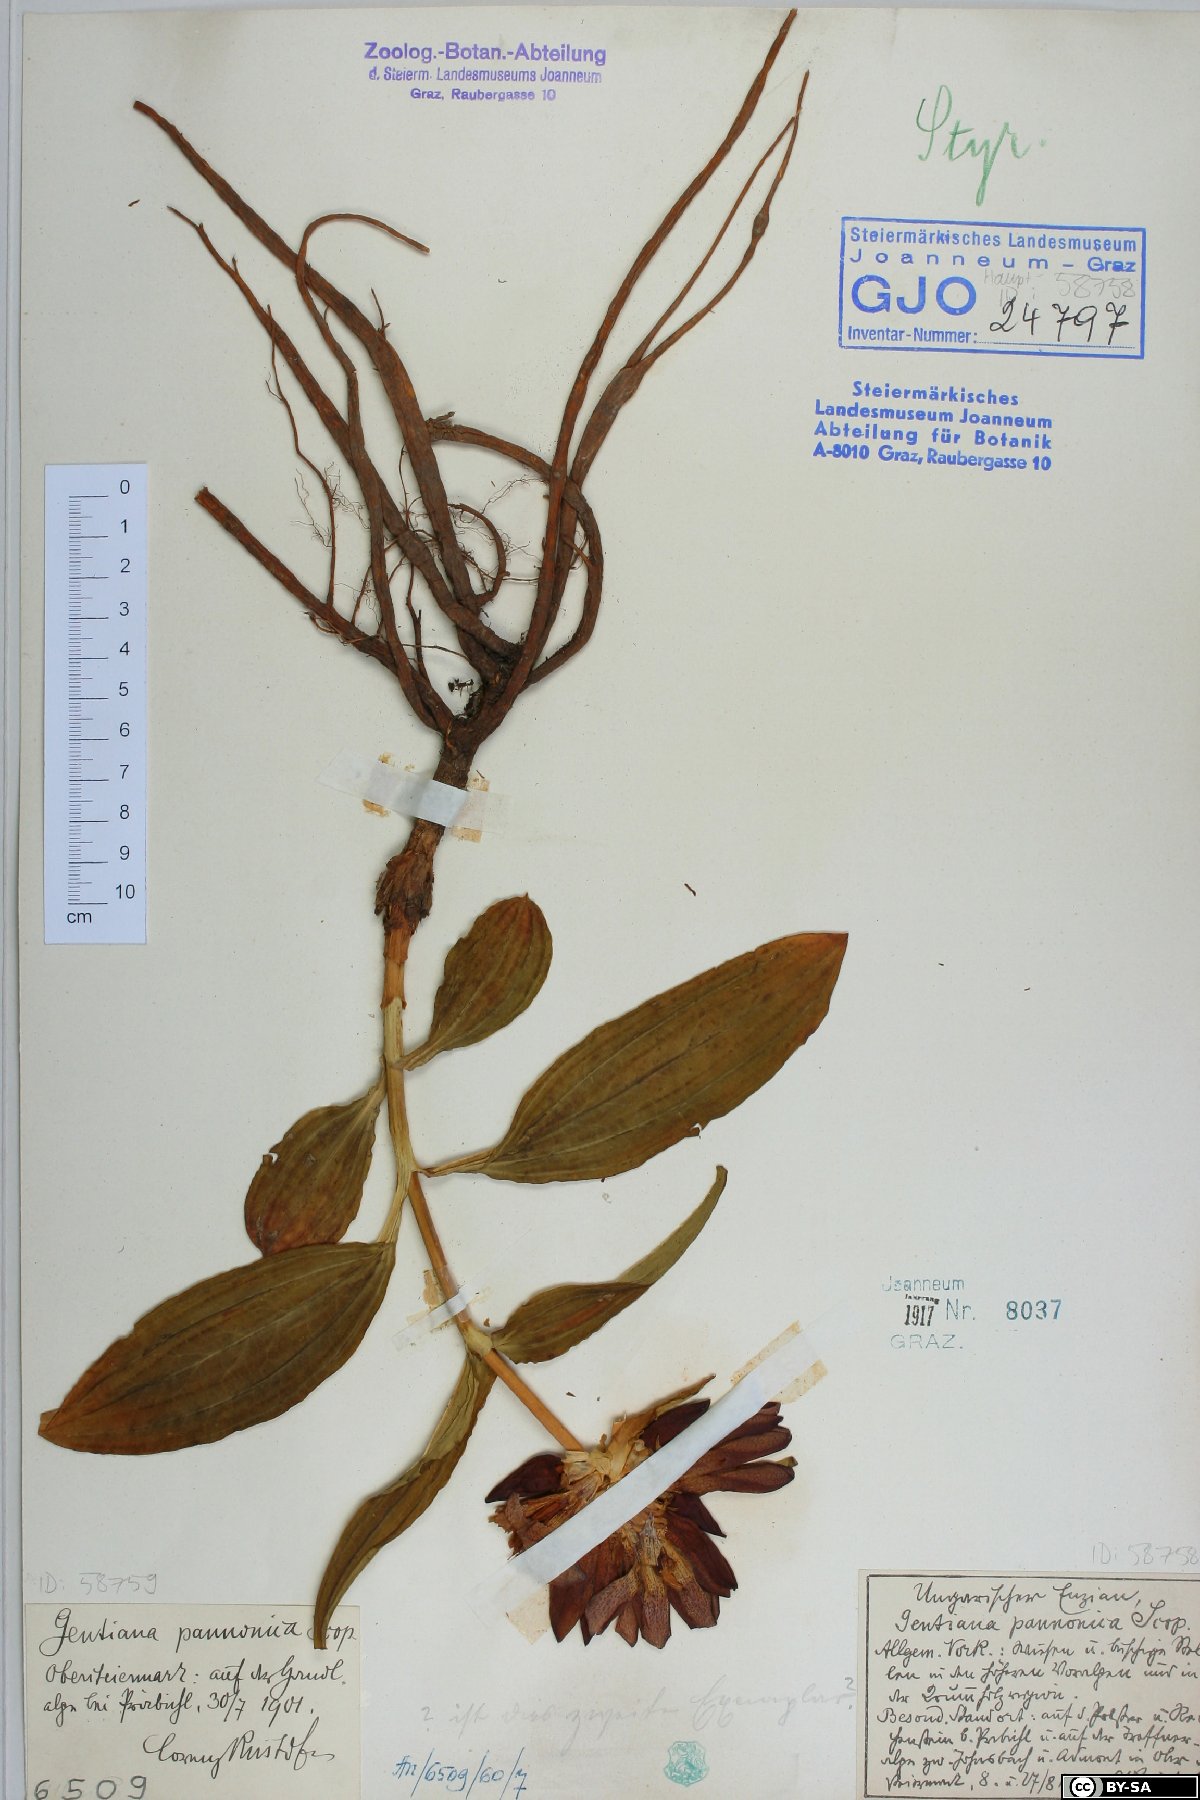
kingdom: Plantae
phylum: Tracheophyta
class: Magnoliopsida
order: Gentianales
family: Gentianaceae
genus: Gentiana
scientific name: Gentiana pannonica
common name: Hungarian gentian
